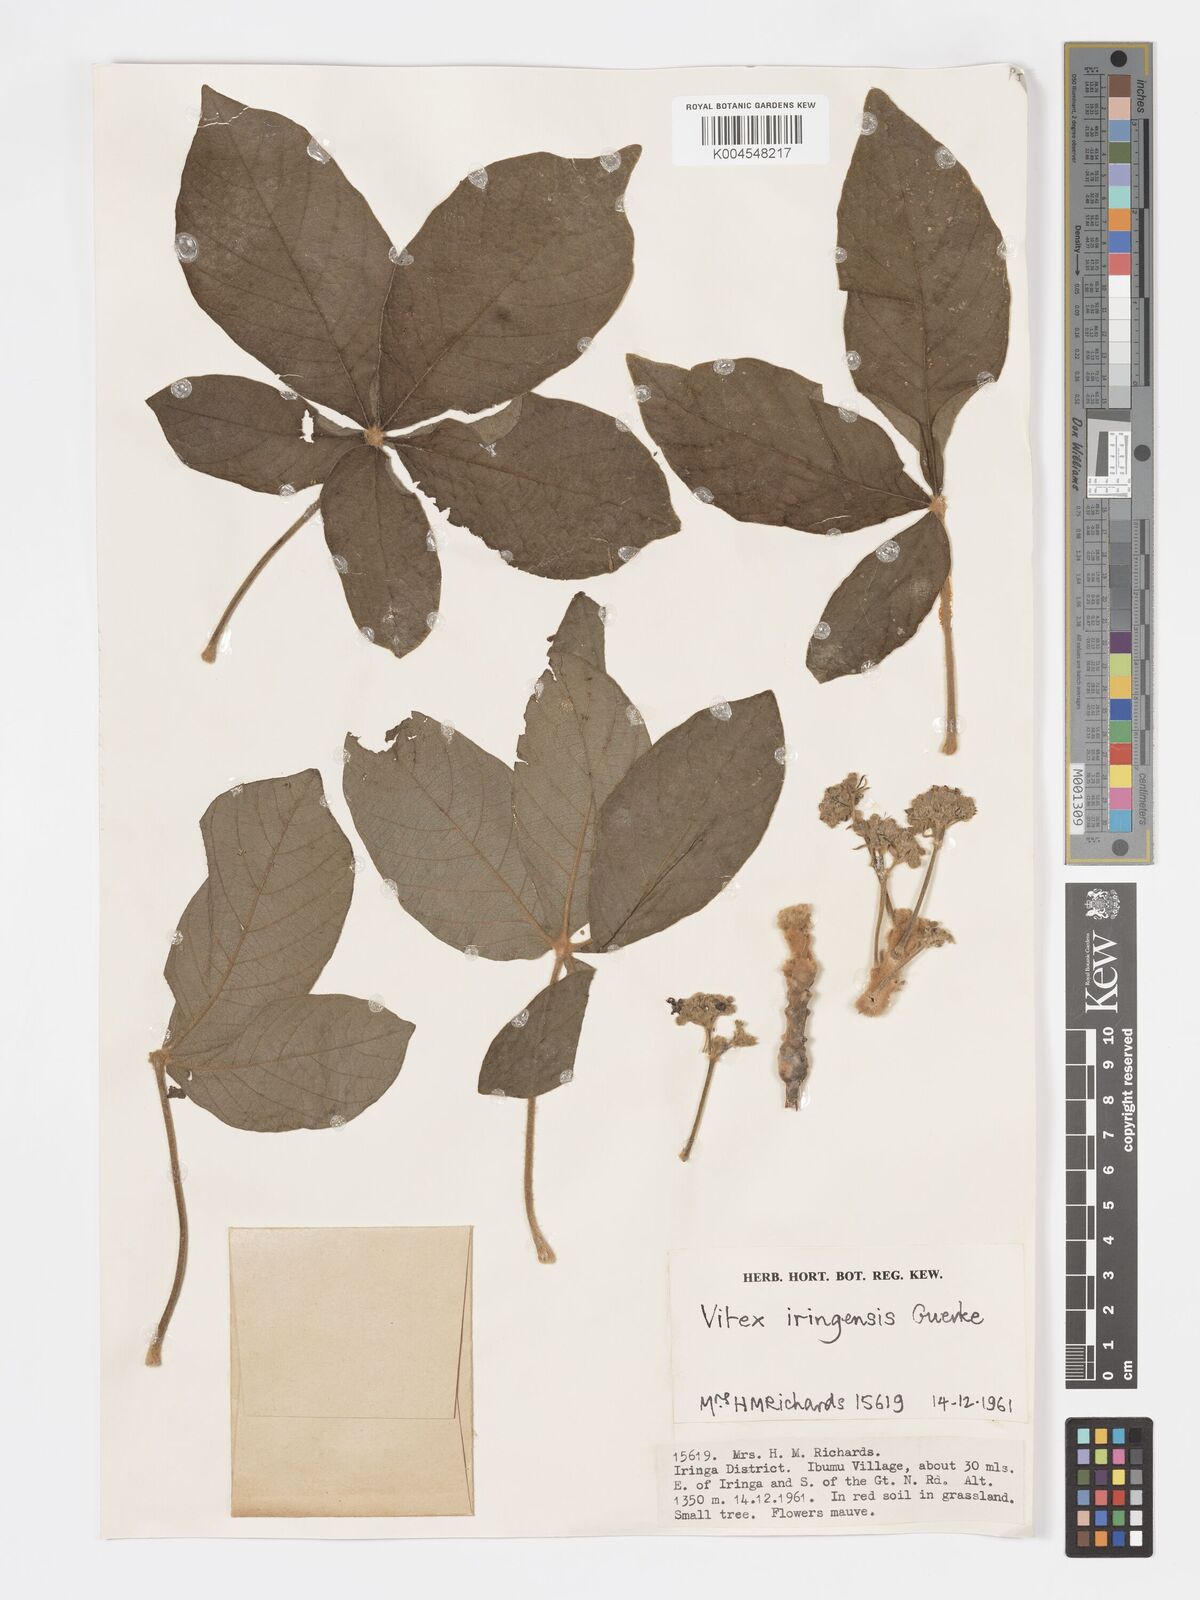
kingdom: Plantae
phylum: Tracheophyta
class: Magnoliopsida
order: Lamiales
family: Lamiaceae
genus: Vitex
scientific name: Vitex payos
